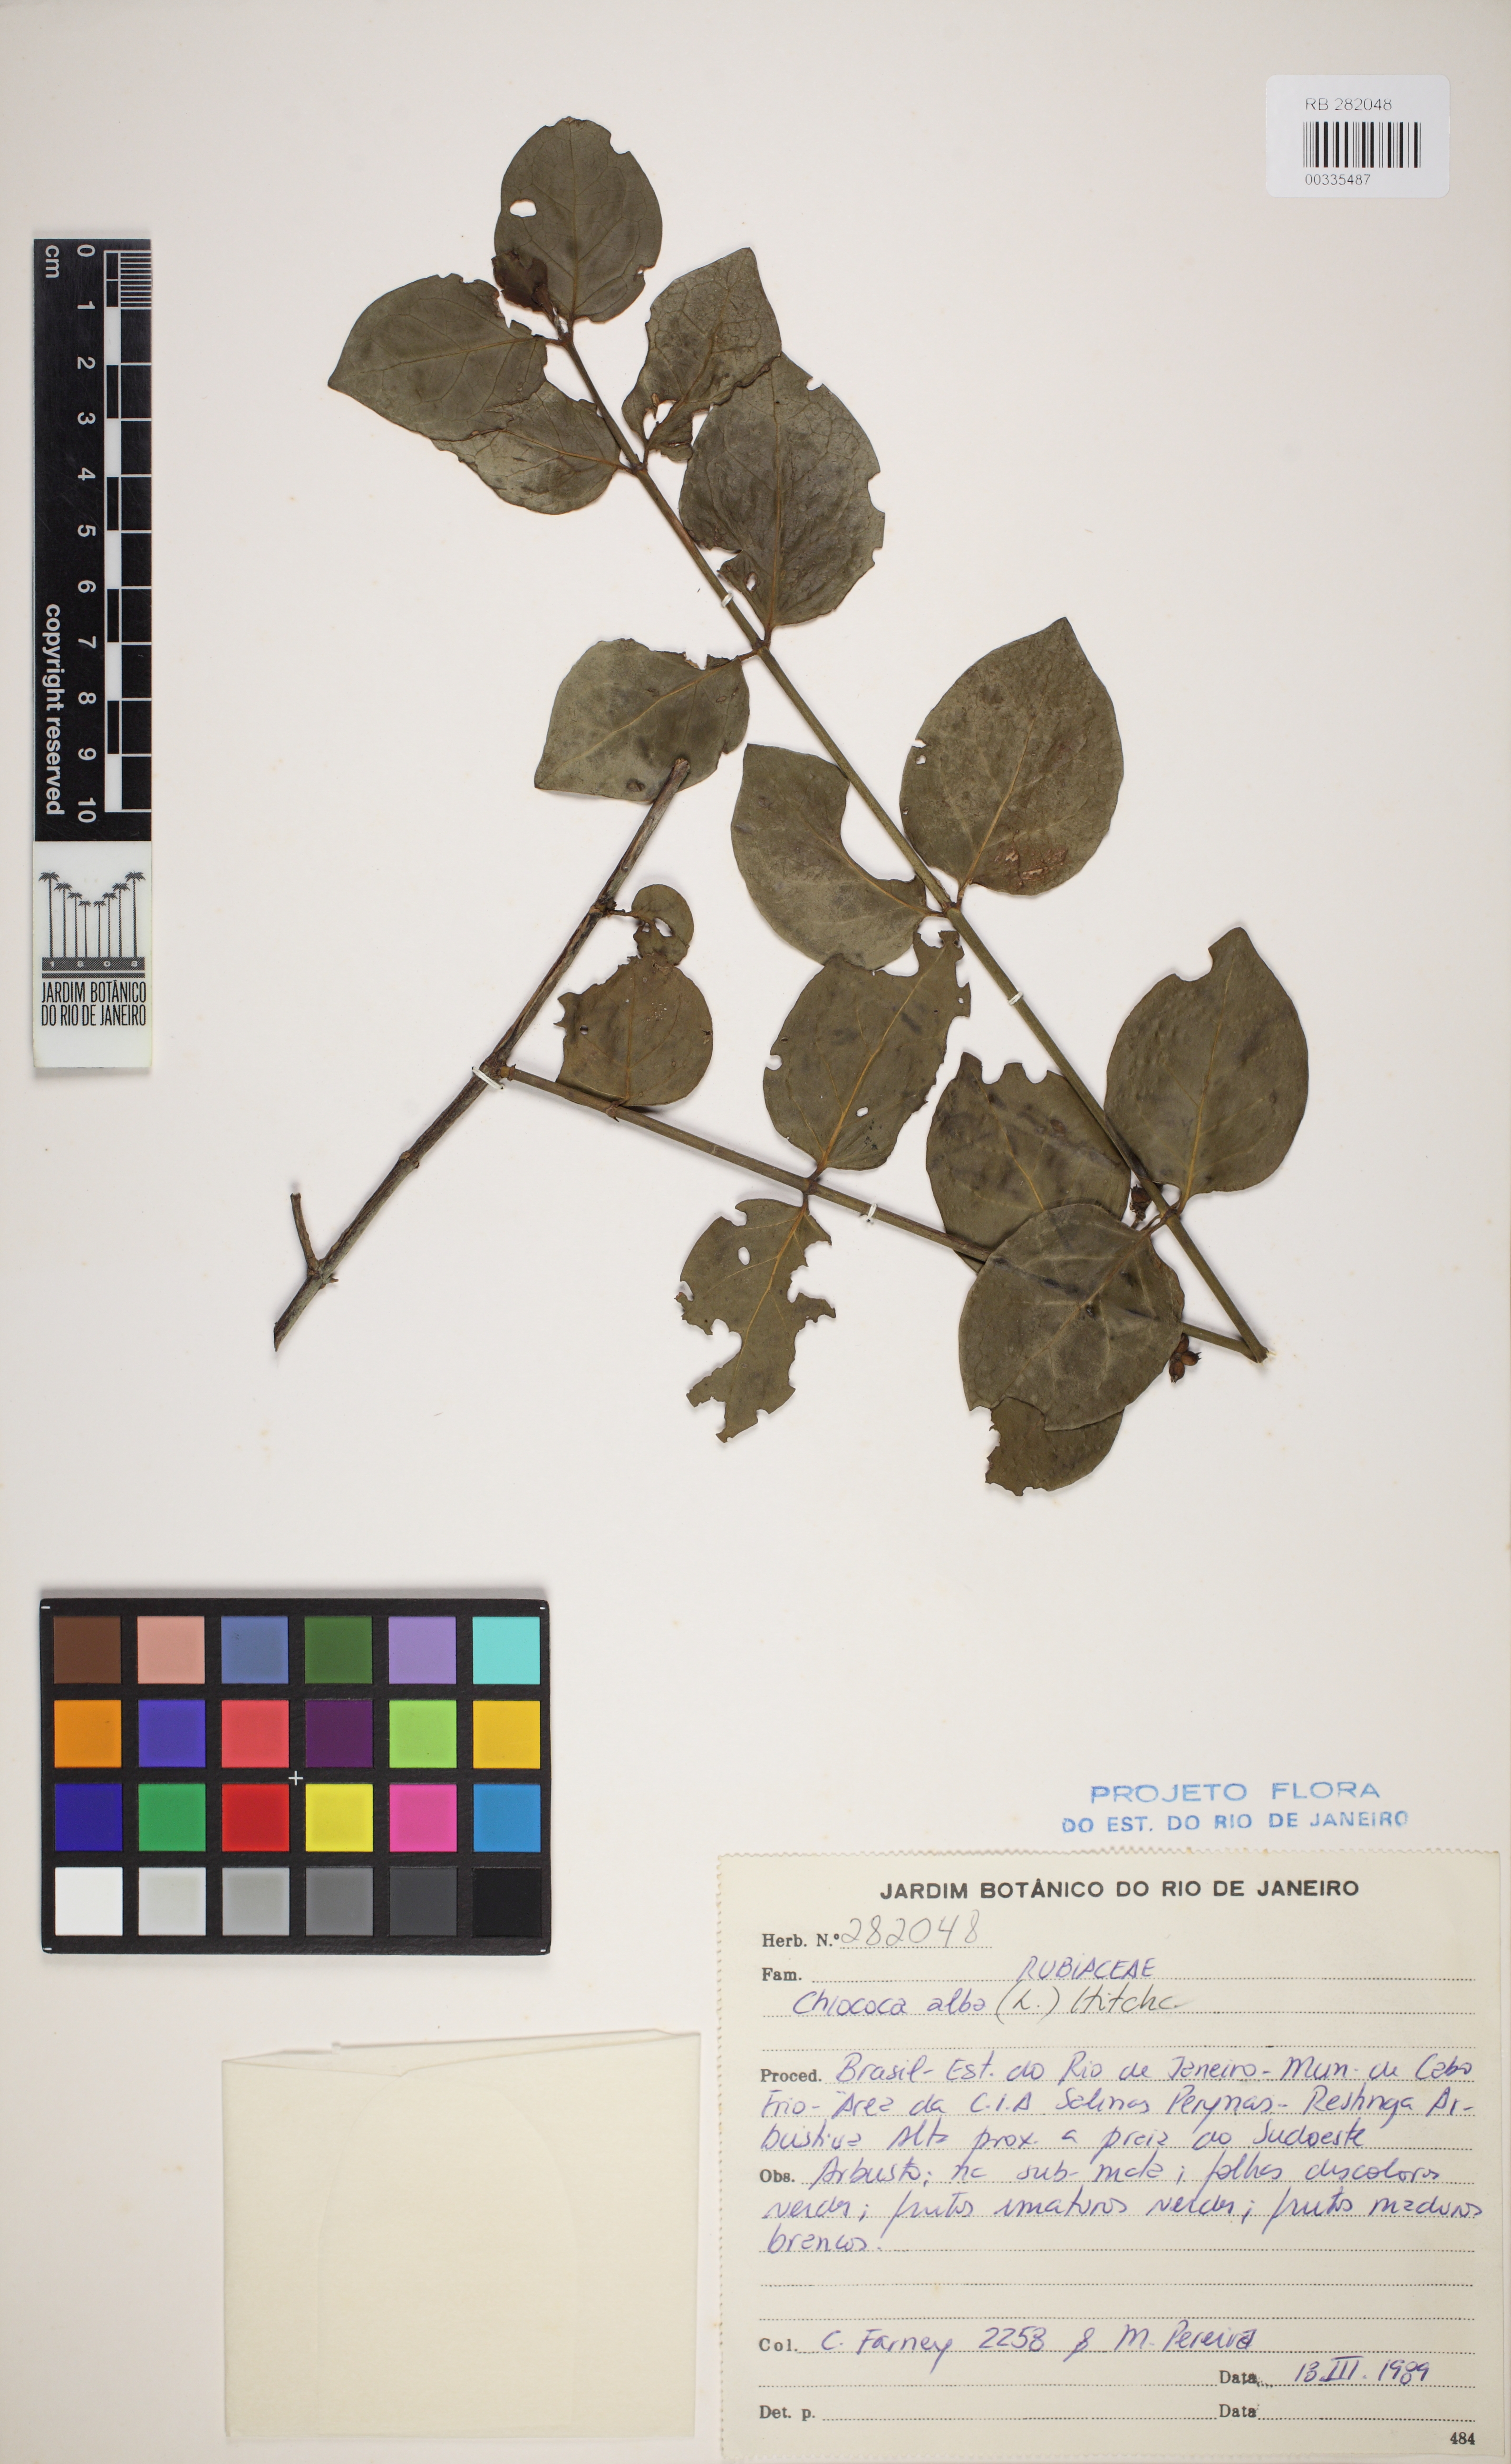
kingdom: Plantae
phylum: Tracheophyta
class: Magnoliopsida
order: Gentianales
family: Rubiaceae
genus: Chiococca
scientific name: Chiococca alba
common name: Snowberry
